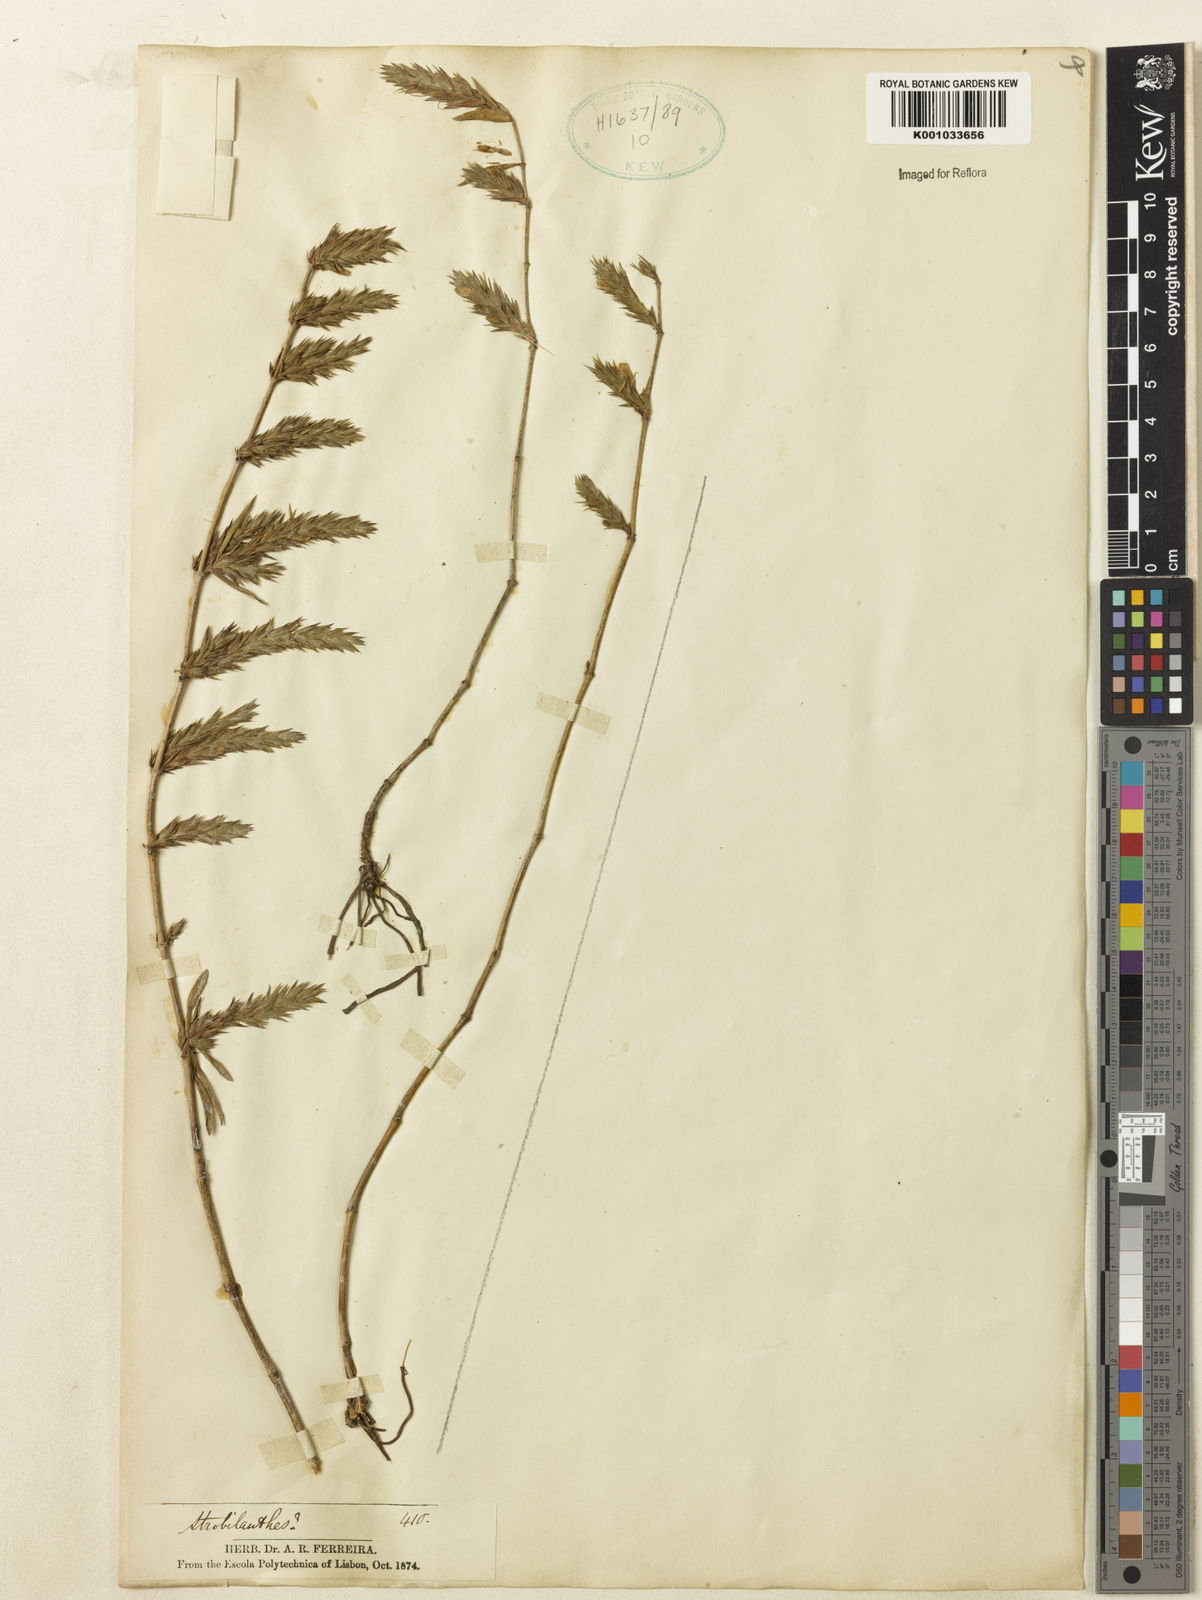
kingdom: Plantae
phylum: Tracheophyta
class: Magnoliopsida
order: Lamiales
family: Acanthaceae
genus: Justicia
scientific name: Justicia
